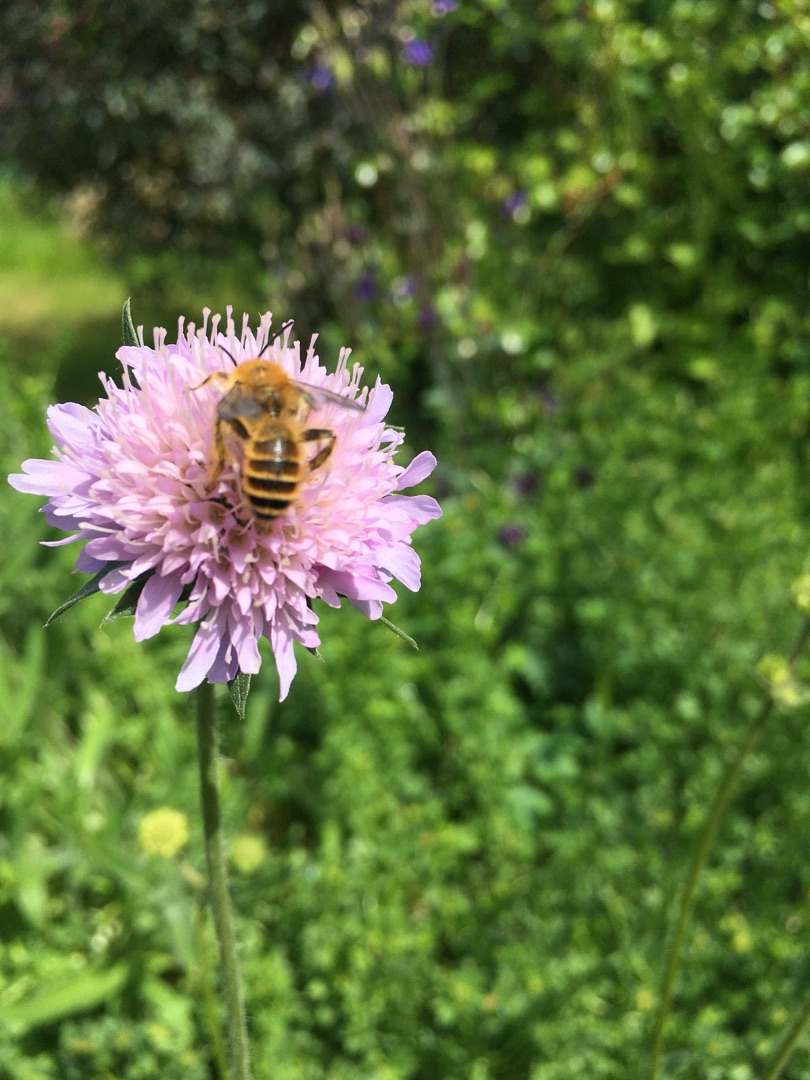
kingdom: Plantae
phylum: Tracheophyta
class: Magnoliopsida
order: Dipsacales
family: Caprifoliaceae
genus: Knautia
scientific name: Knautia arvensis
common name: Blåhat
